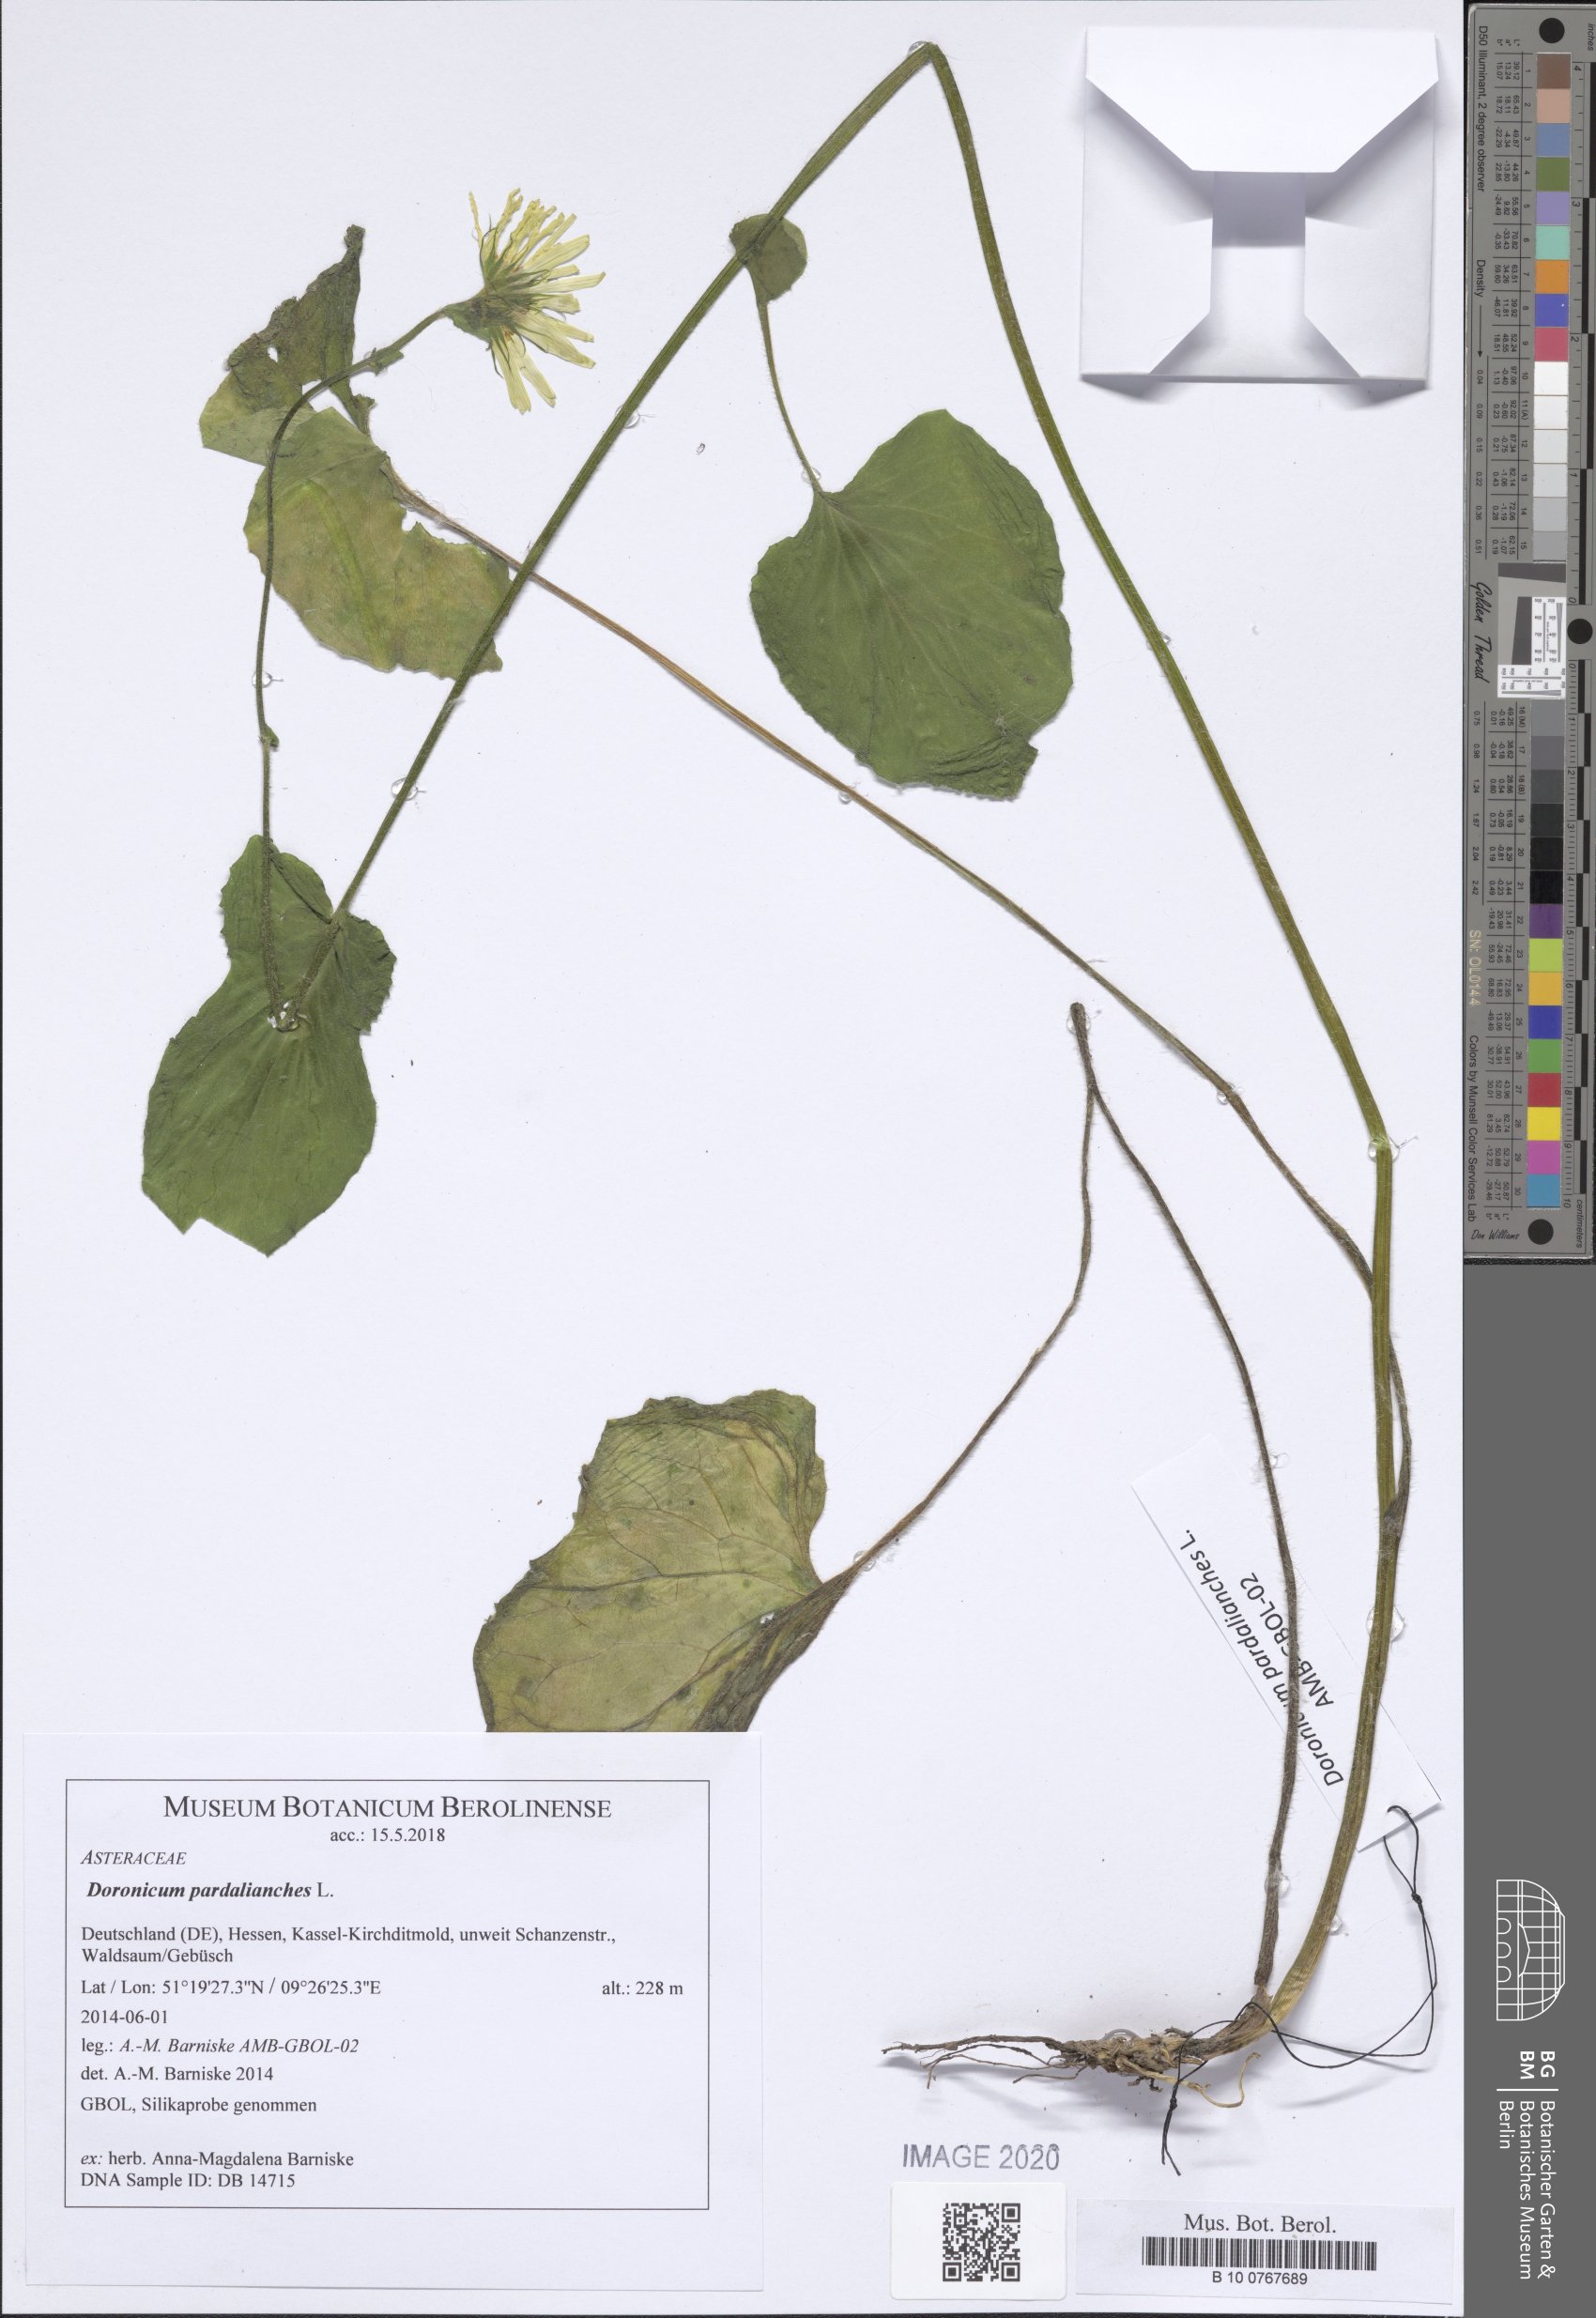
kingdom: Plantae
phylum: Tracheophyta
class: Magnoliopsida
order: Asterales
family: Asteraceae
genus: Doronicum
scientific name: Doronicum pardalianches
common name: Leopard's-bane
